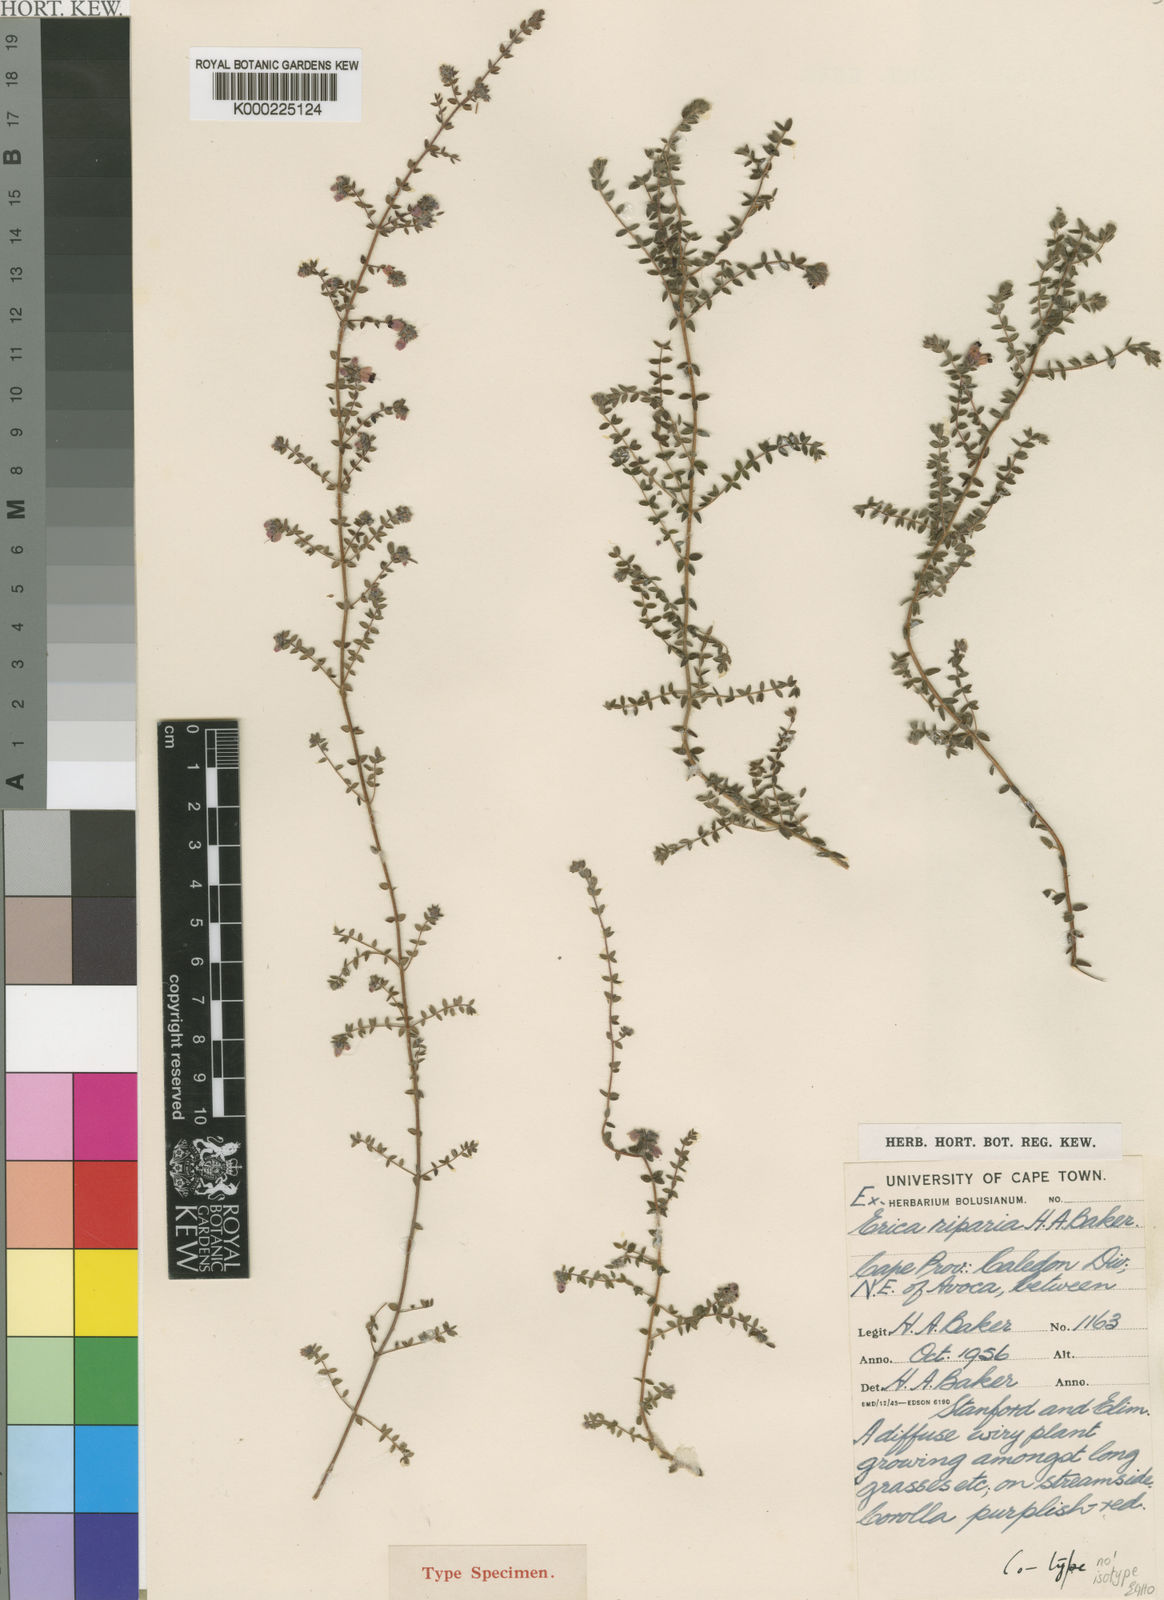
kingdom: Plantae
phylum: Tracheophyta
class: Magnoliopsida
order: Ericales
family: Ericaceae
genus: Erica
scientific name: Erica riparia
